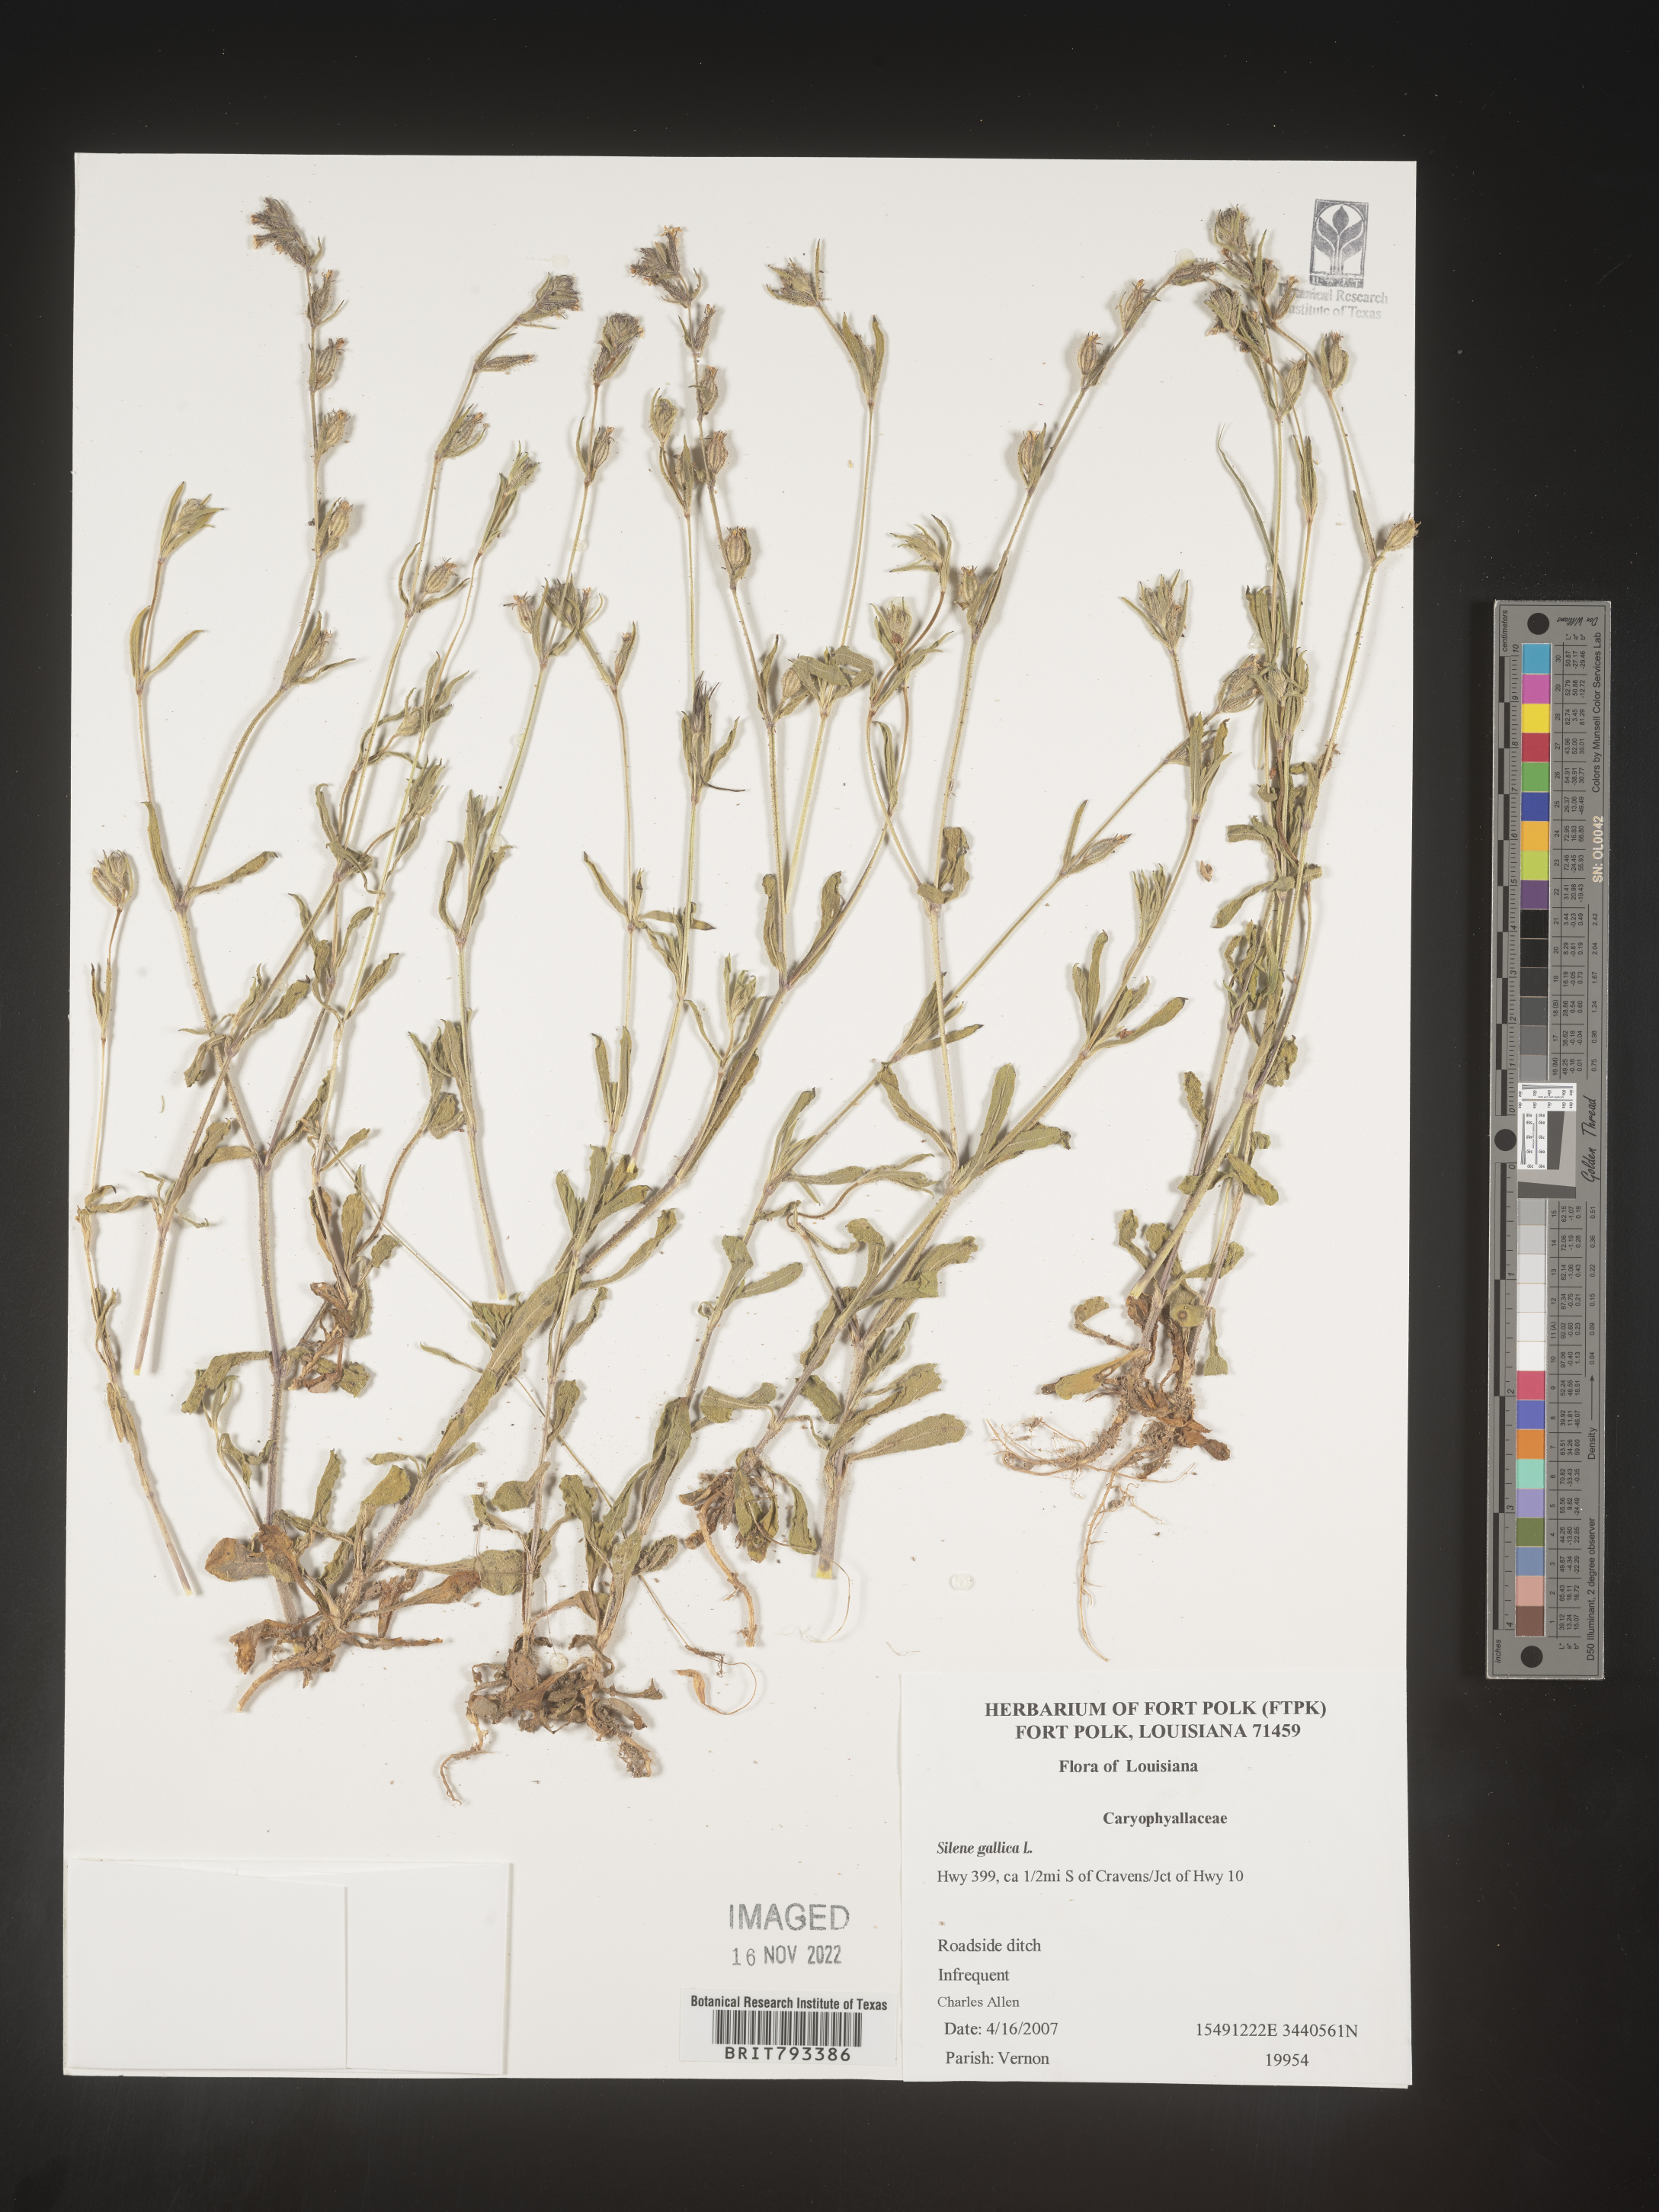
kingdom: Plantae
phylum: Tracheophyta
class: Magnoliopsida
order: Caryophyllales
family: Caryophyllaceae
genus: Silene
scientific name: Silene gallica
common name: Small-flowered catchfly
